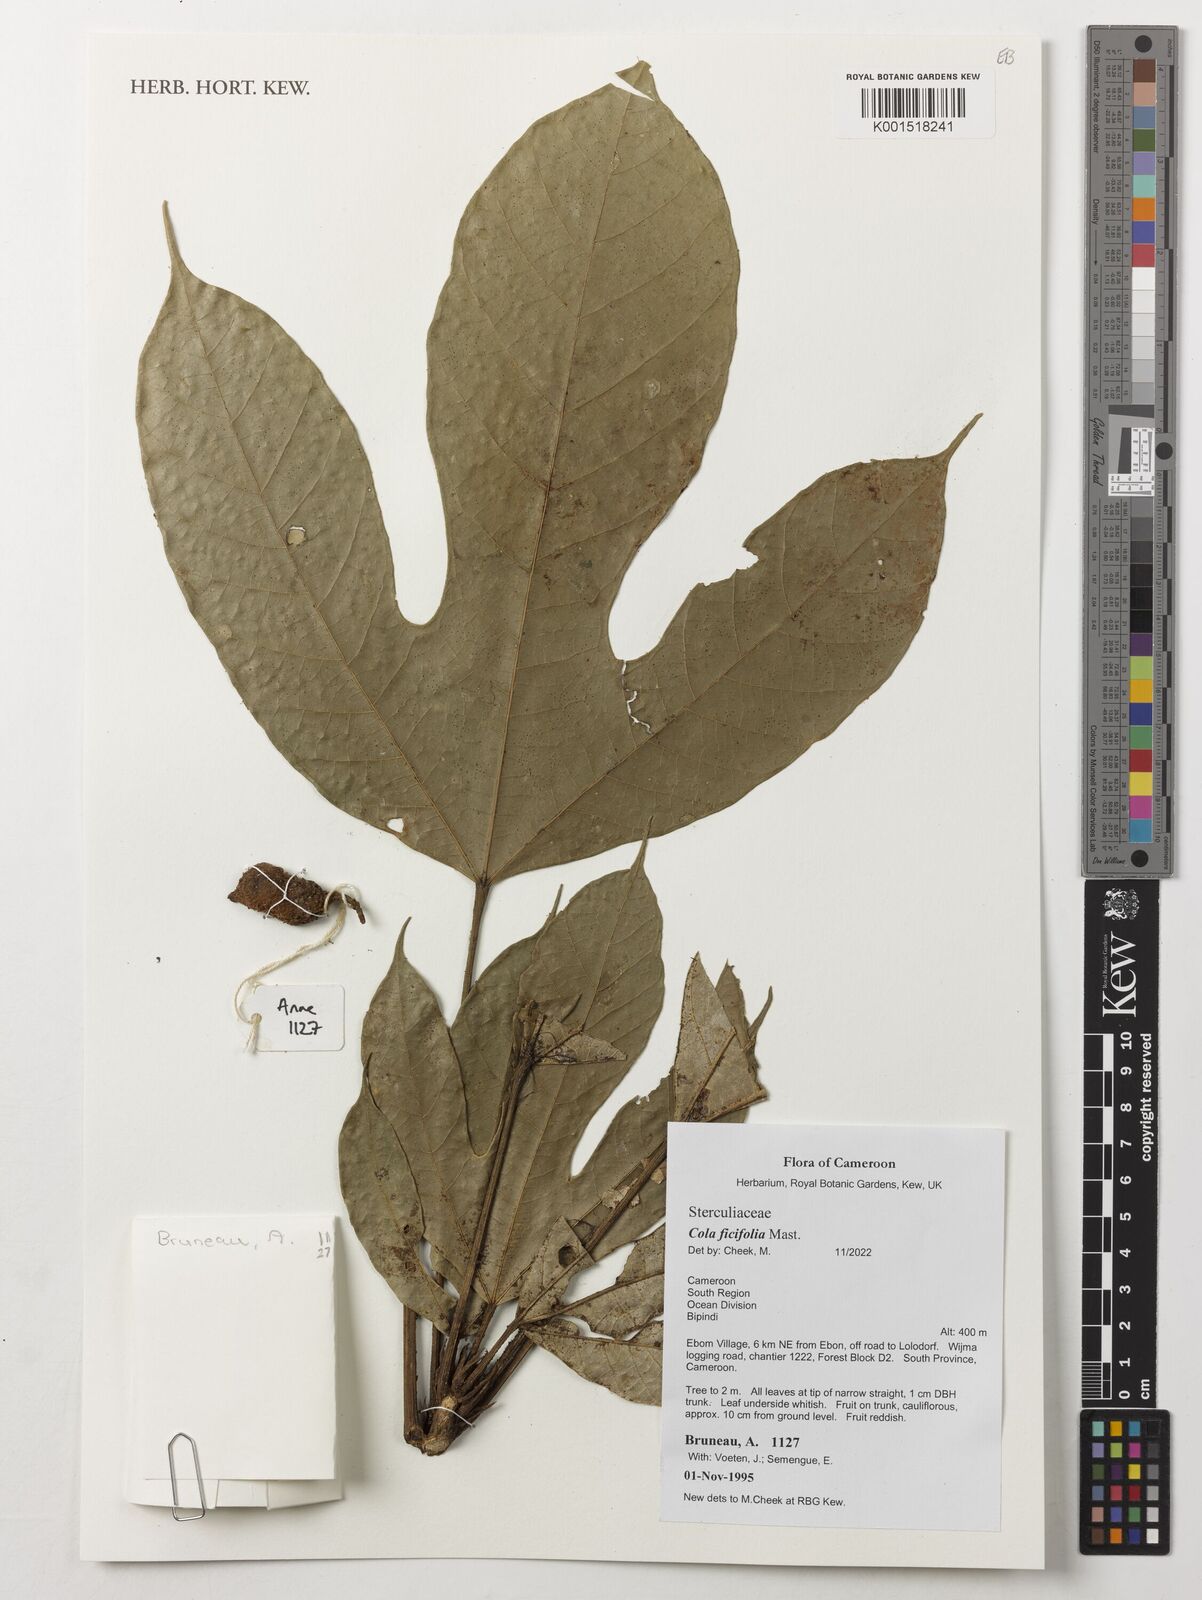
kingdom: Plantae
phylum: Tracheophyta
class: Magnoliopsida
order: Malvales
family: Malvaceae
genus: Cola
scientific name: Cola ficifolia
